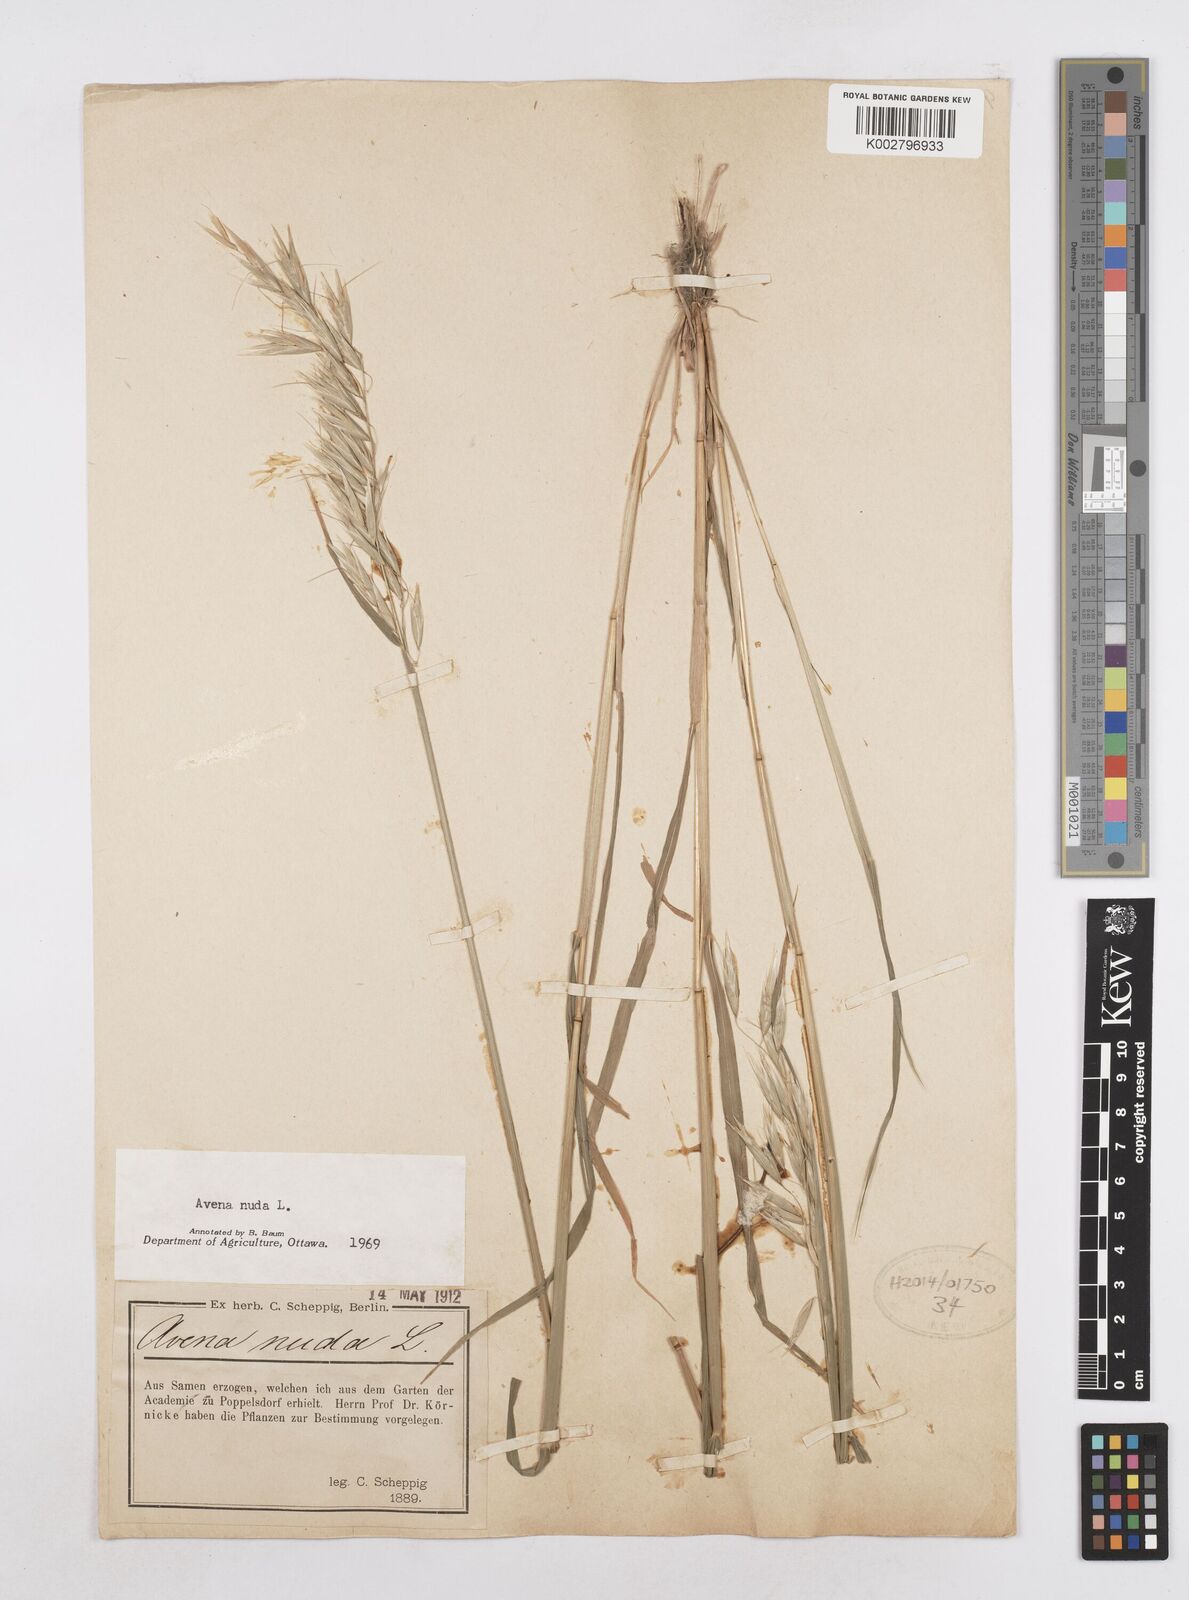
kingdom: Plantae
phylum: Tracheophyta
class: Liliopsida
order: Poales
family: Poaceae
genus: Avena
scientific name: Avena nuda
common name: Naked oat
